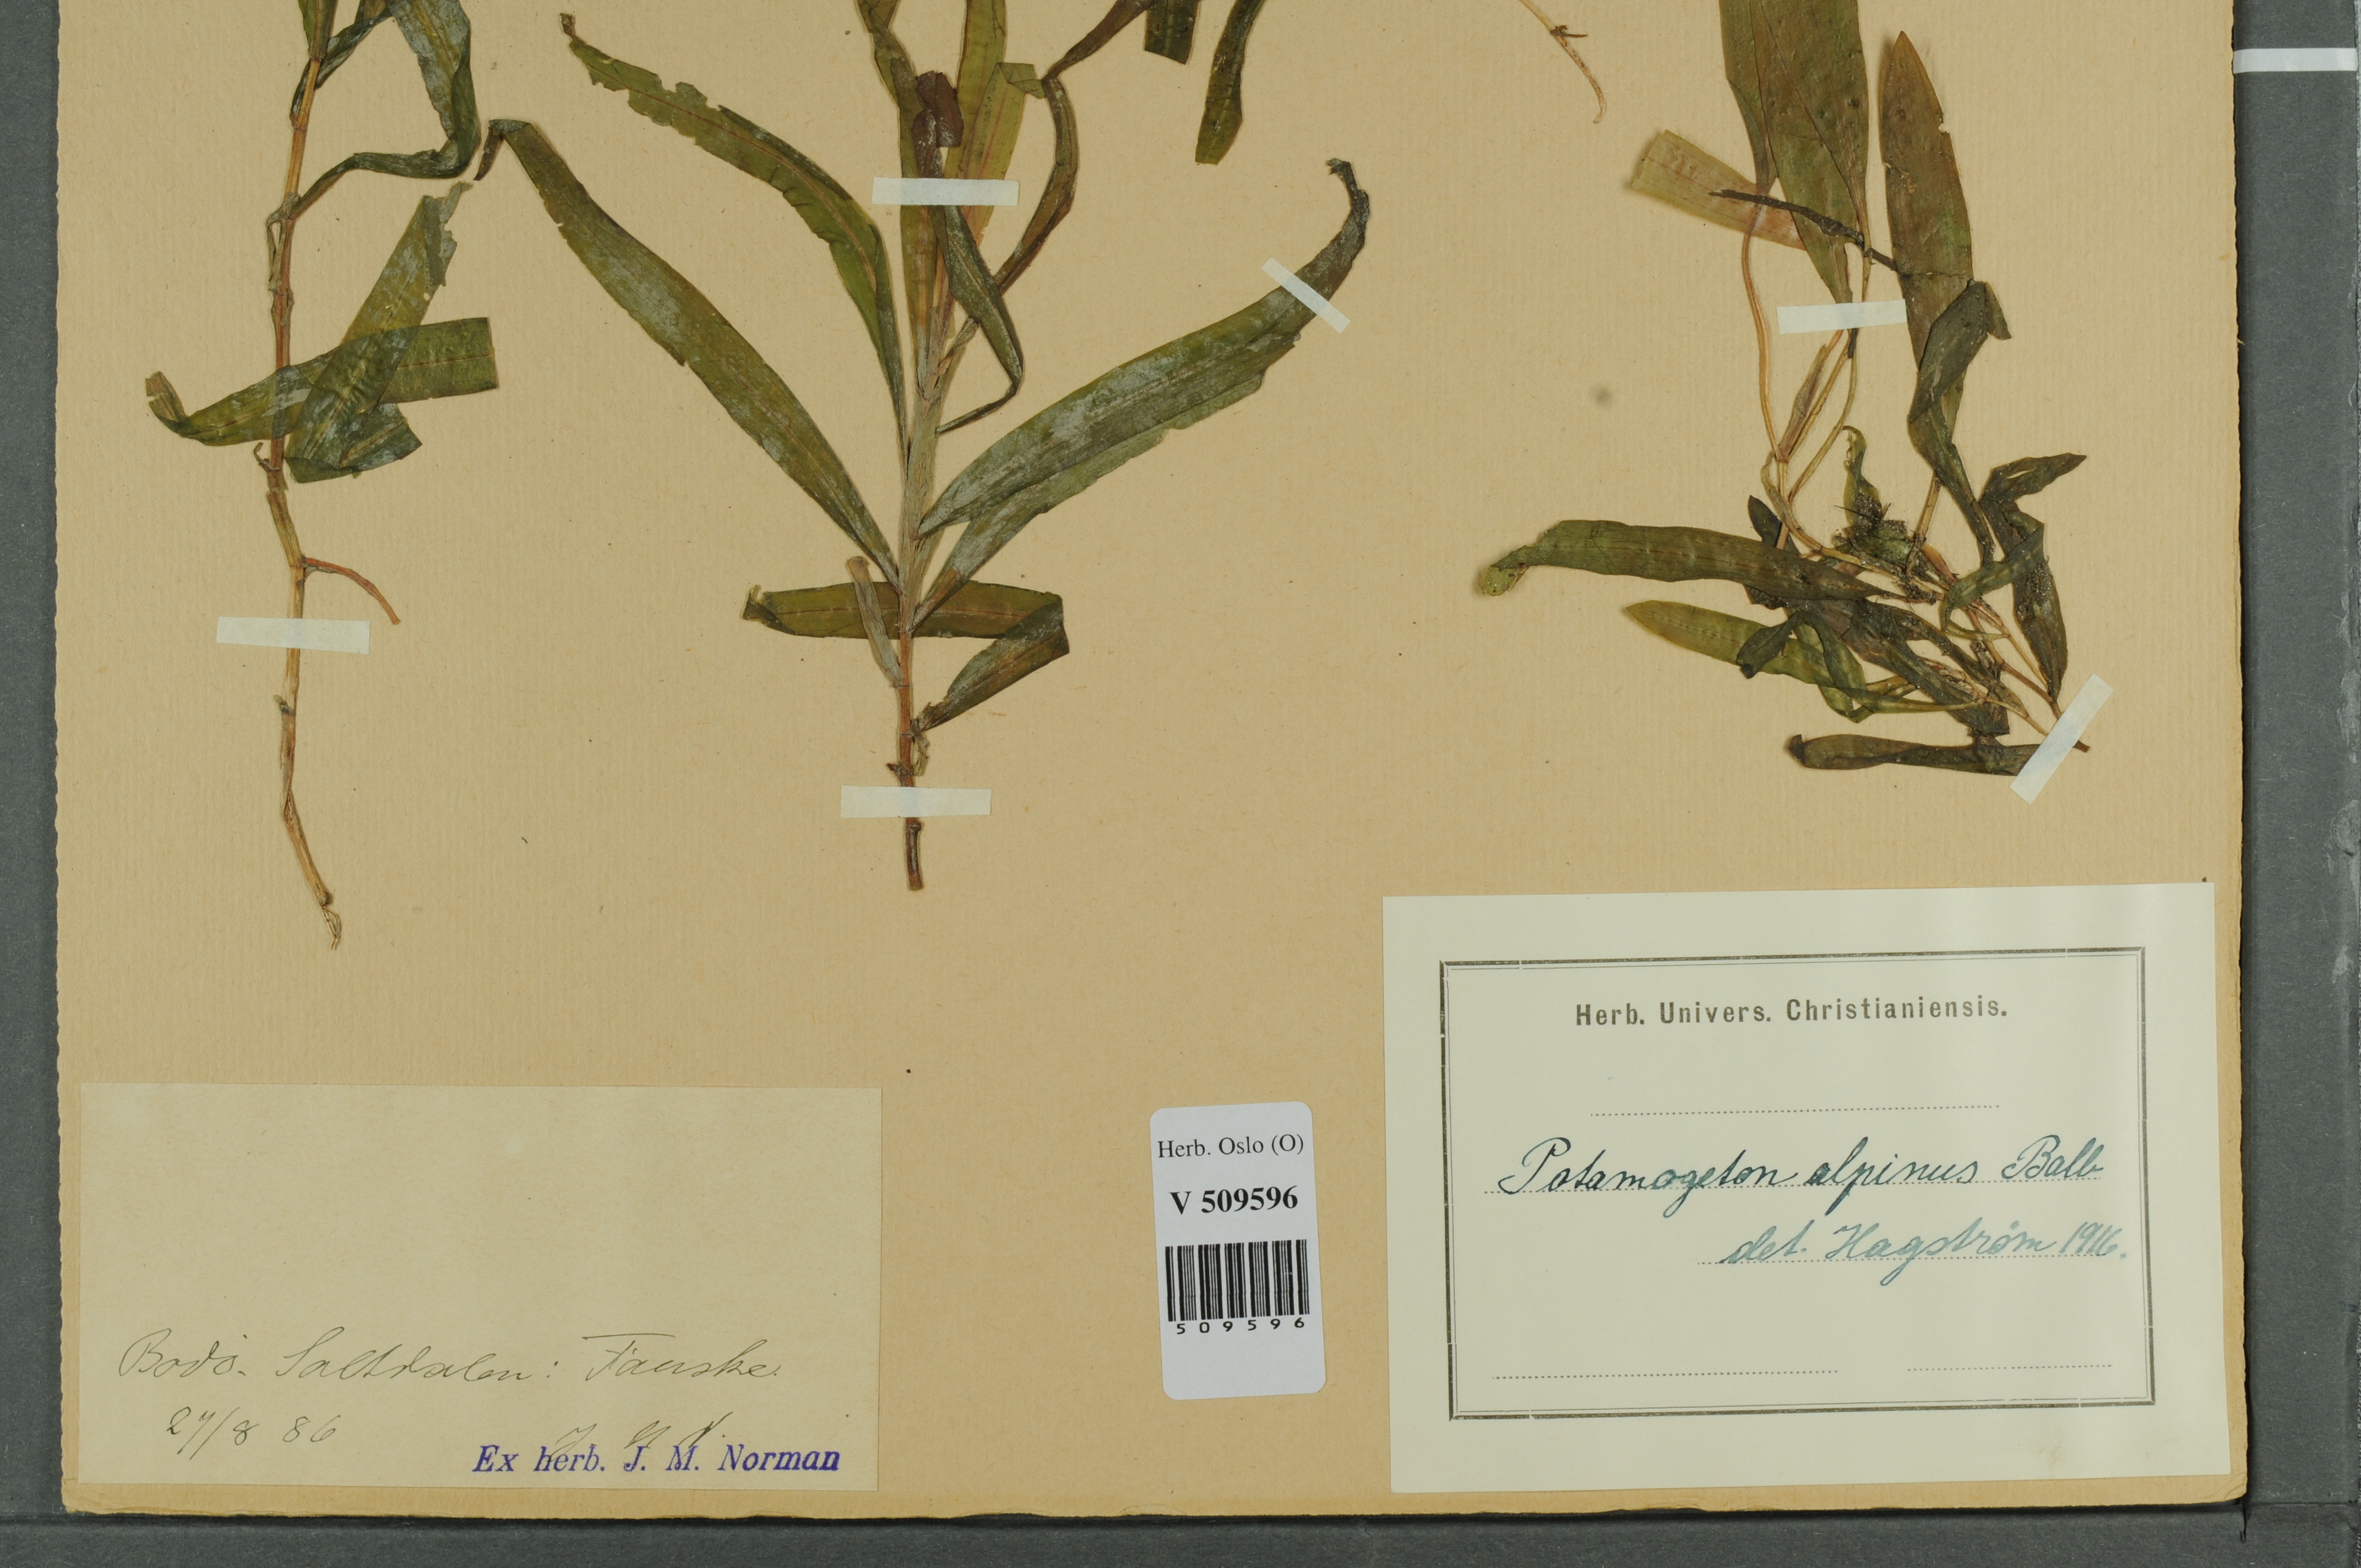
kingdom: Plantae
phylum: Tracheophyta
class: Liliopsida
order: Alismatales
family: Potamogetonaceae
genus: Potamogeton
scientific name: Potamogeton alpinus
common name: Red pondweed
